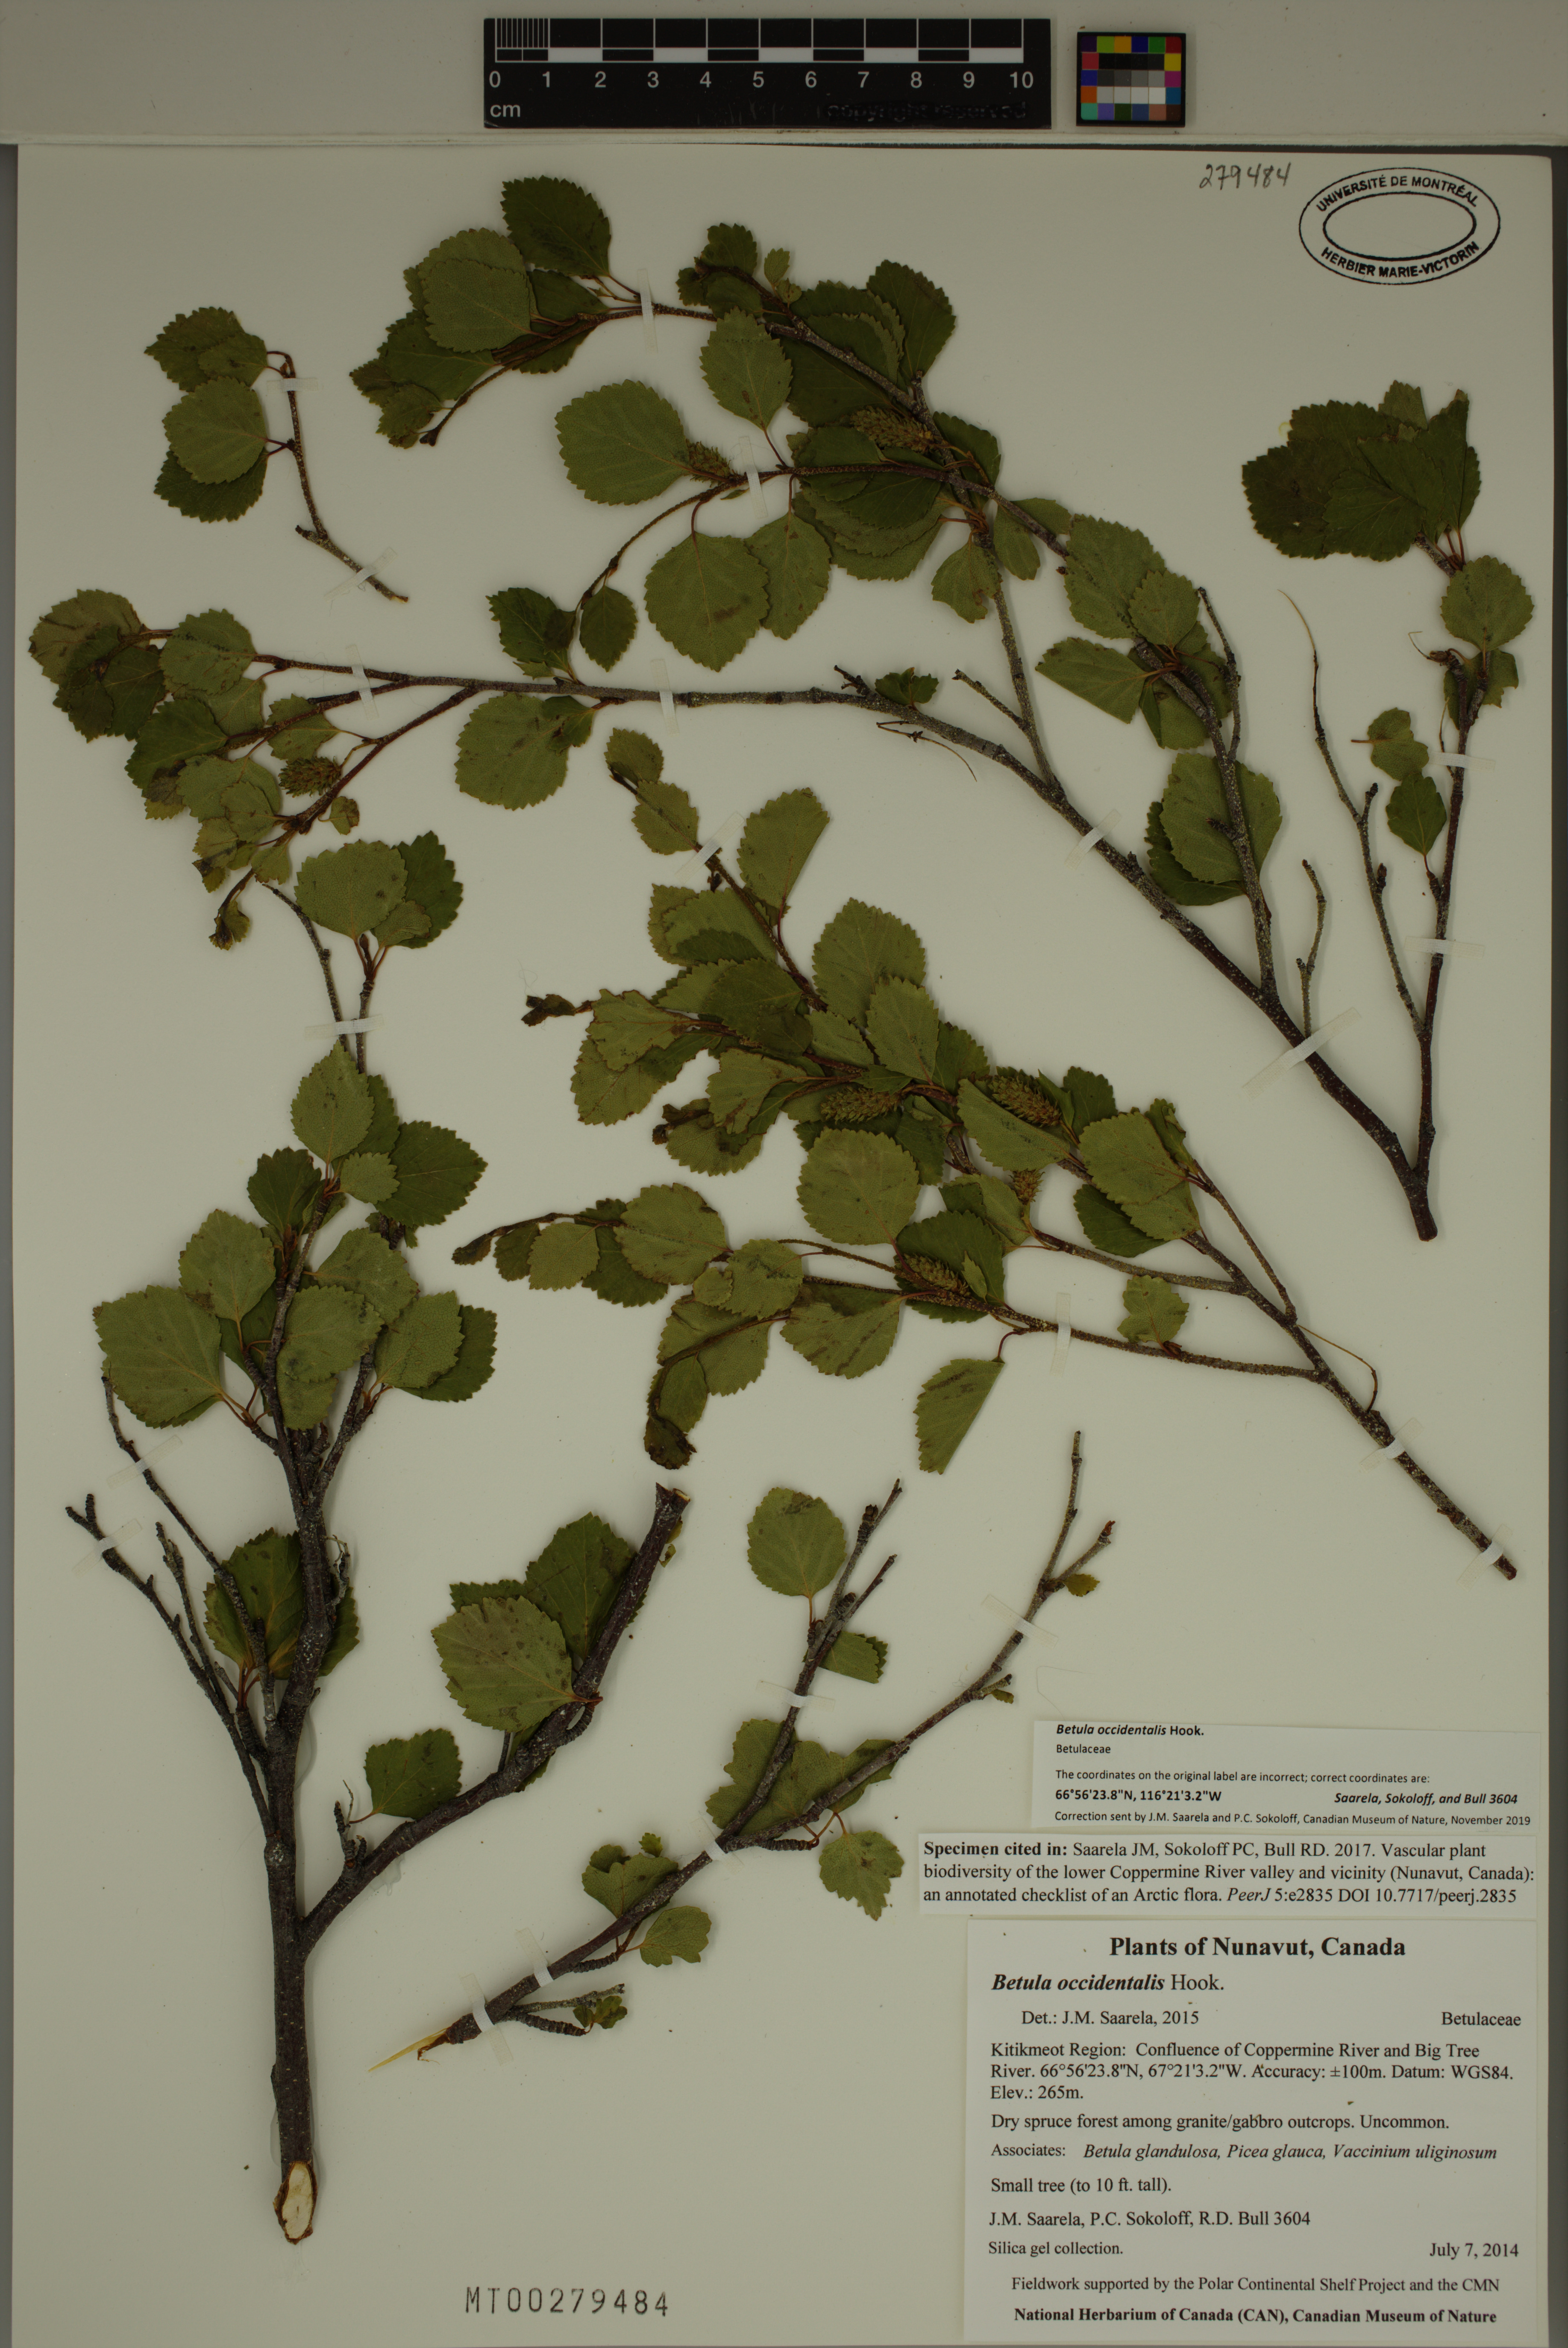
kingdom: Plantae
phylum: Tracheophyta
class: Magnoliopsida
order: Fagales
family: Betulaceae
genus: Betula
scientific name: Betula occidentalis
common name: River birch
